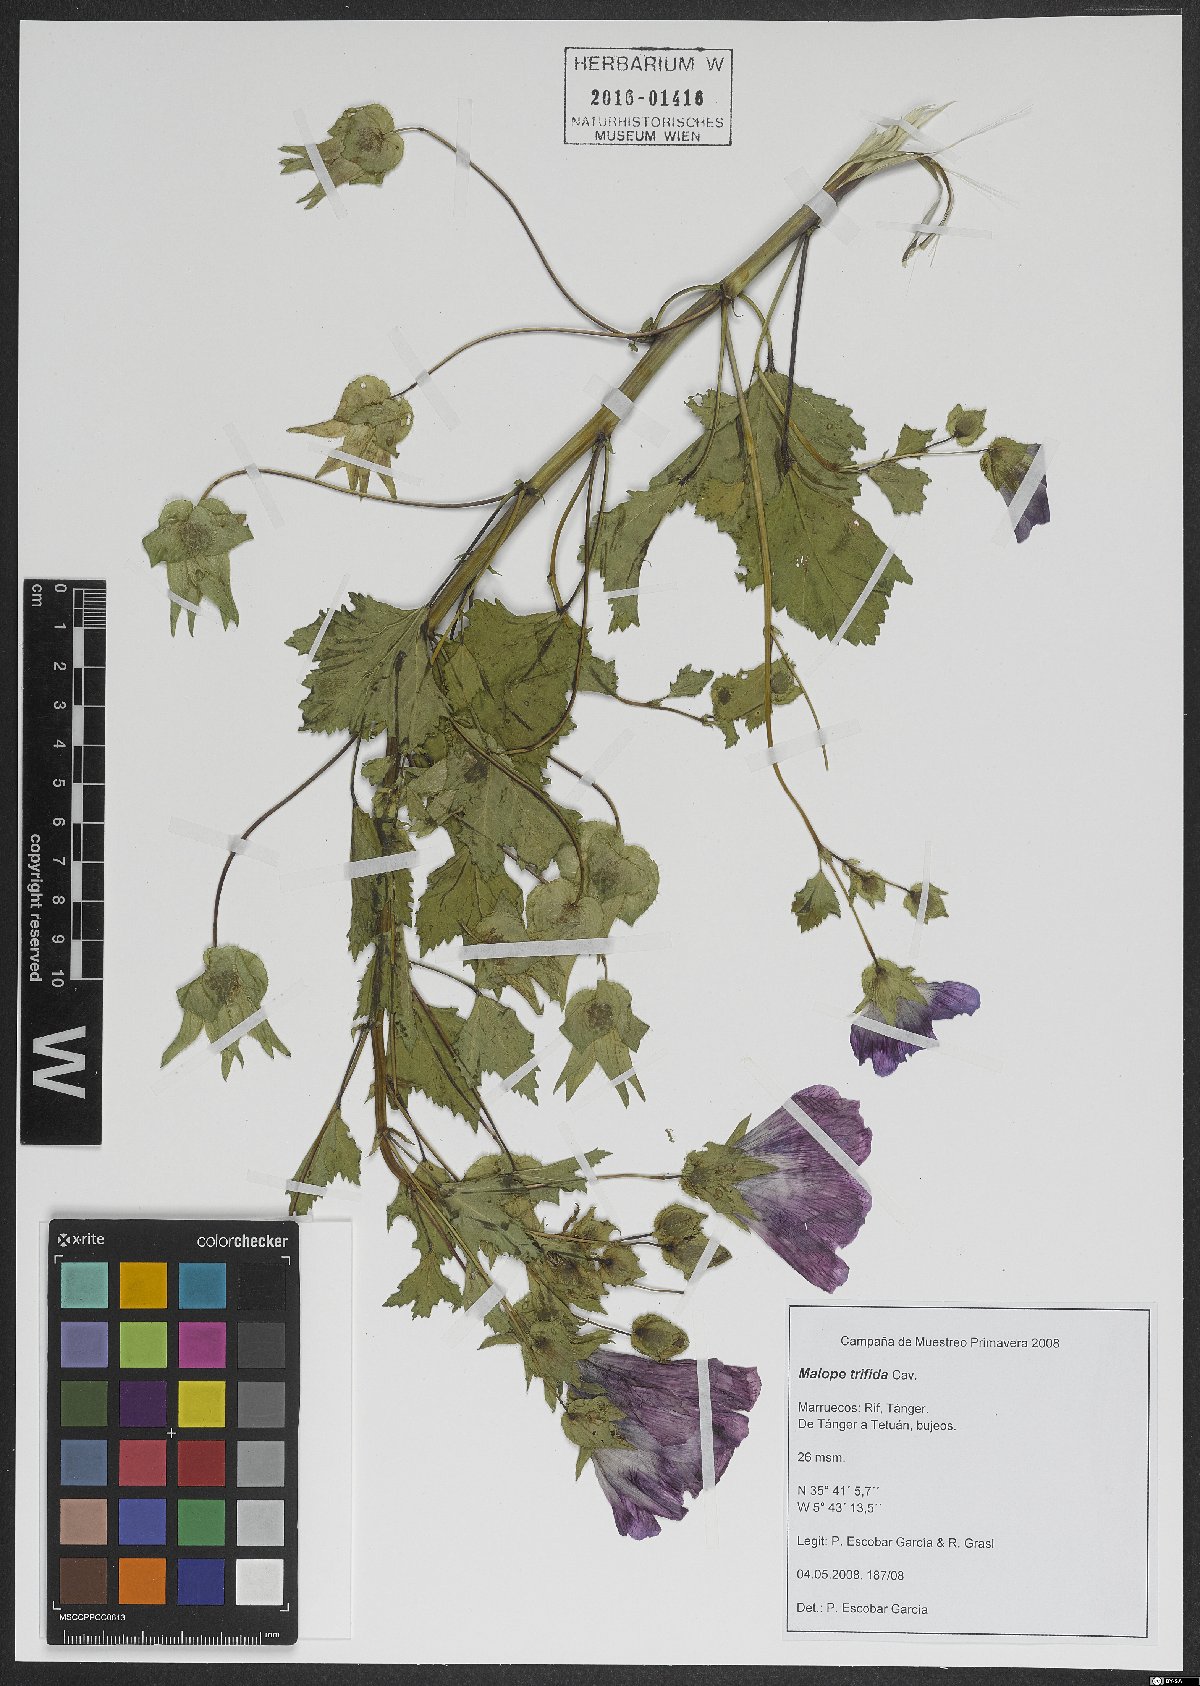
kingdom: Plantae
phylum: Tracheophyta
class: Magnoliopsida
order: Malvales
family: Malvaceae
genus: Malope
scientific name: Malope trifida
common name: Mallow-wort
